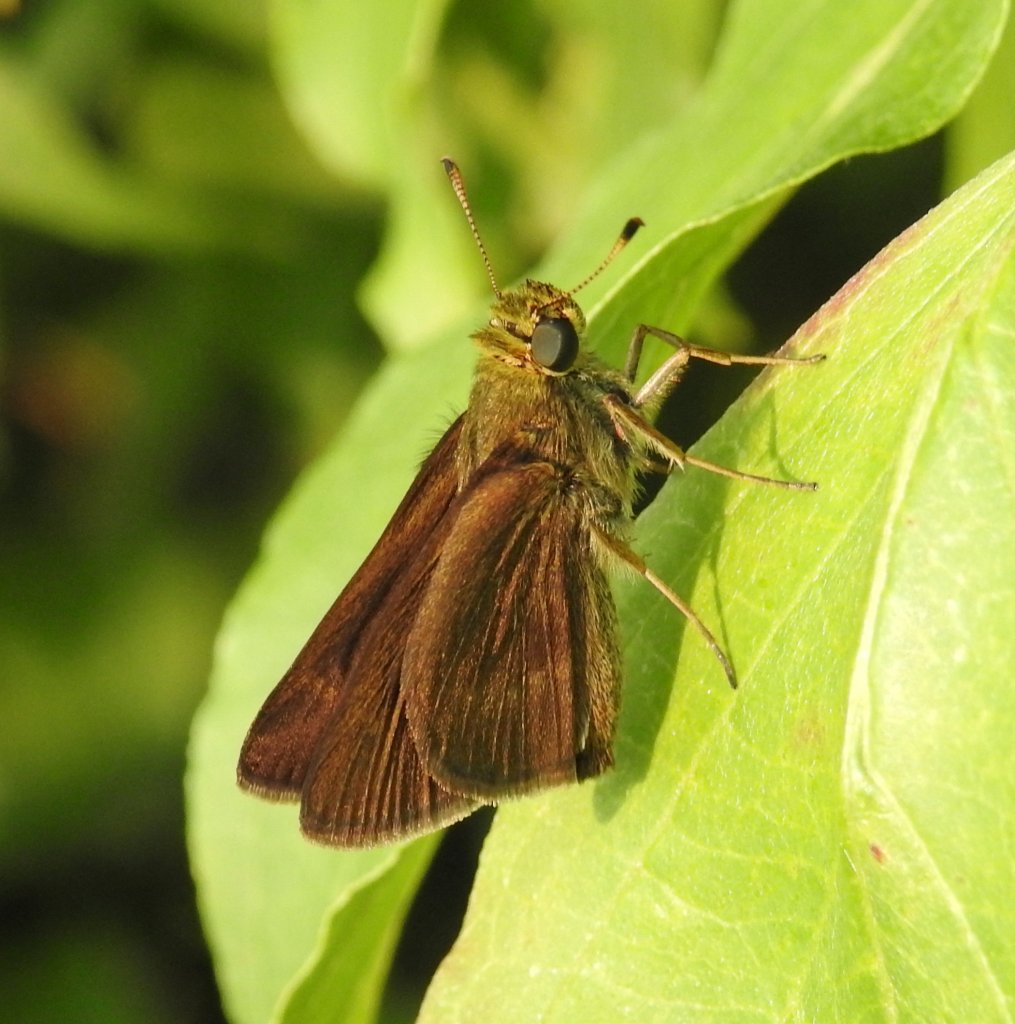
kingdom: Animalia
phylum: Arthropoda
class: Insecta
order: Lepidoptera
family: Hesperiidae
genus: Euphyes
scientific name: Euphyes vestris
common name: Dun Skipper
